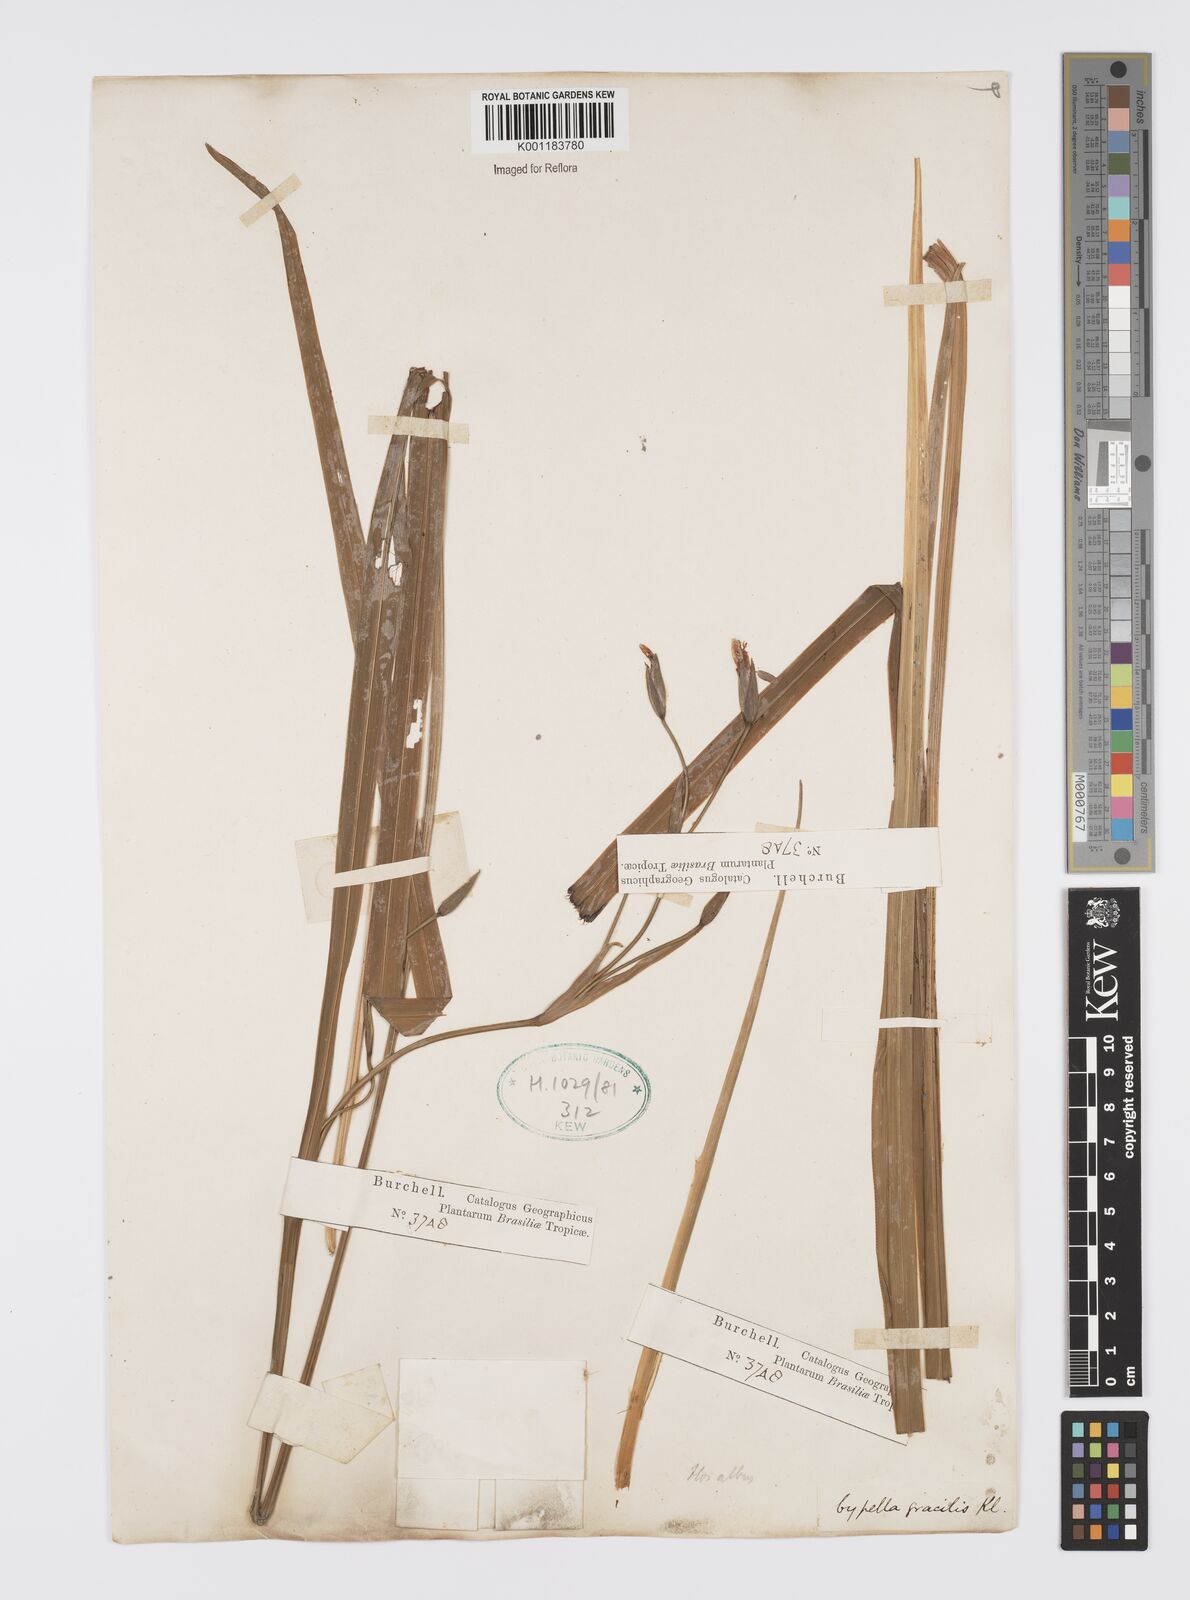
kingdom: Plantae
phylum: Tracheophyta
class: Liliopsida
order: Asparagales
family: Iridaceae
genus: Trimezia
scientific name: Trimezia gracilis
